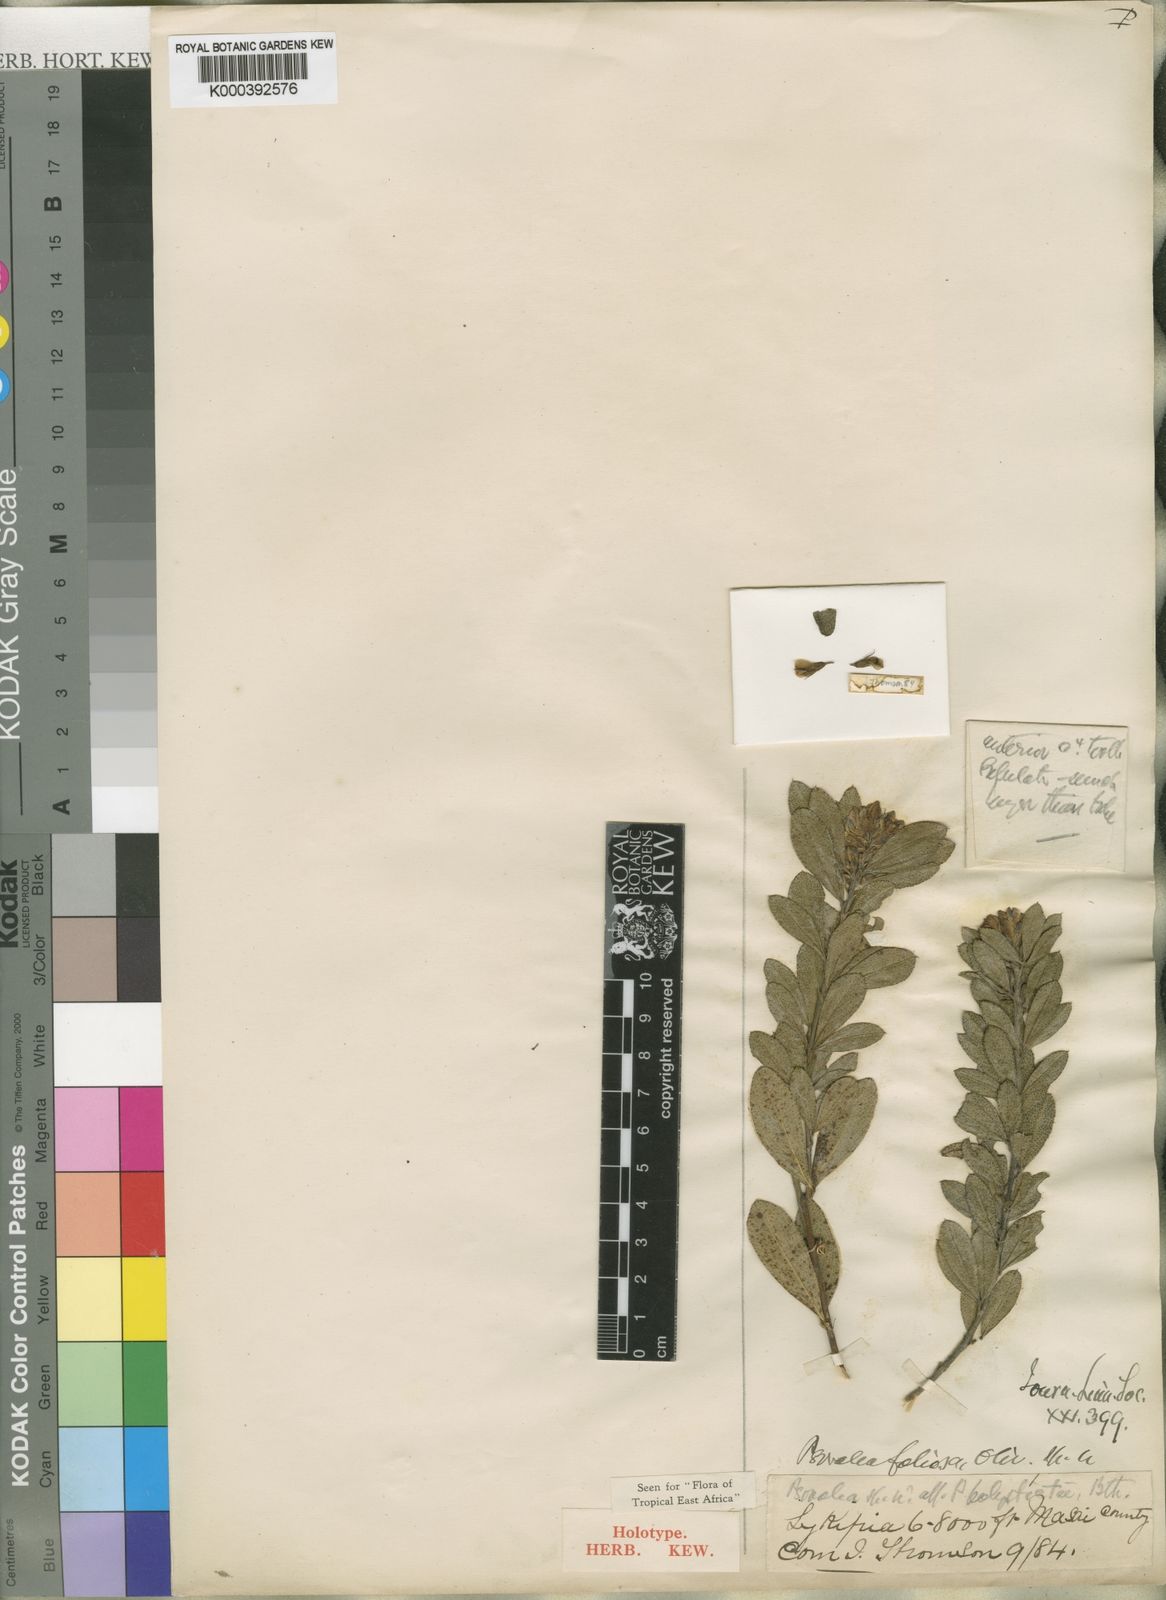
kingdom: Plantae
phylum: Tracheophyta
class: Magnoliopsida
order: Fabales
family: Fabaceae
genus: Psoralea
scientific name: Psoralea foliosa
